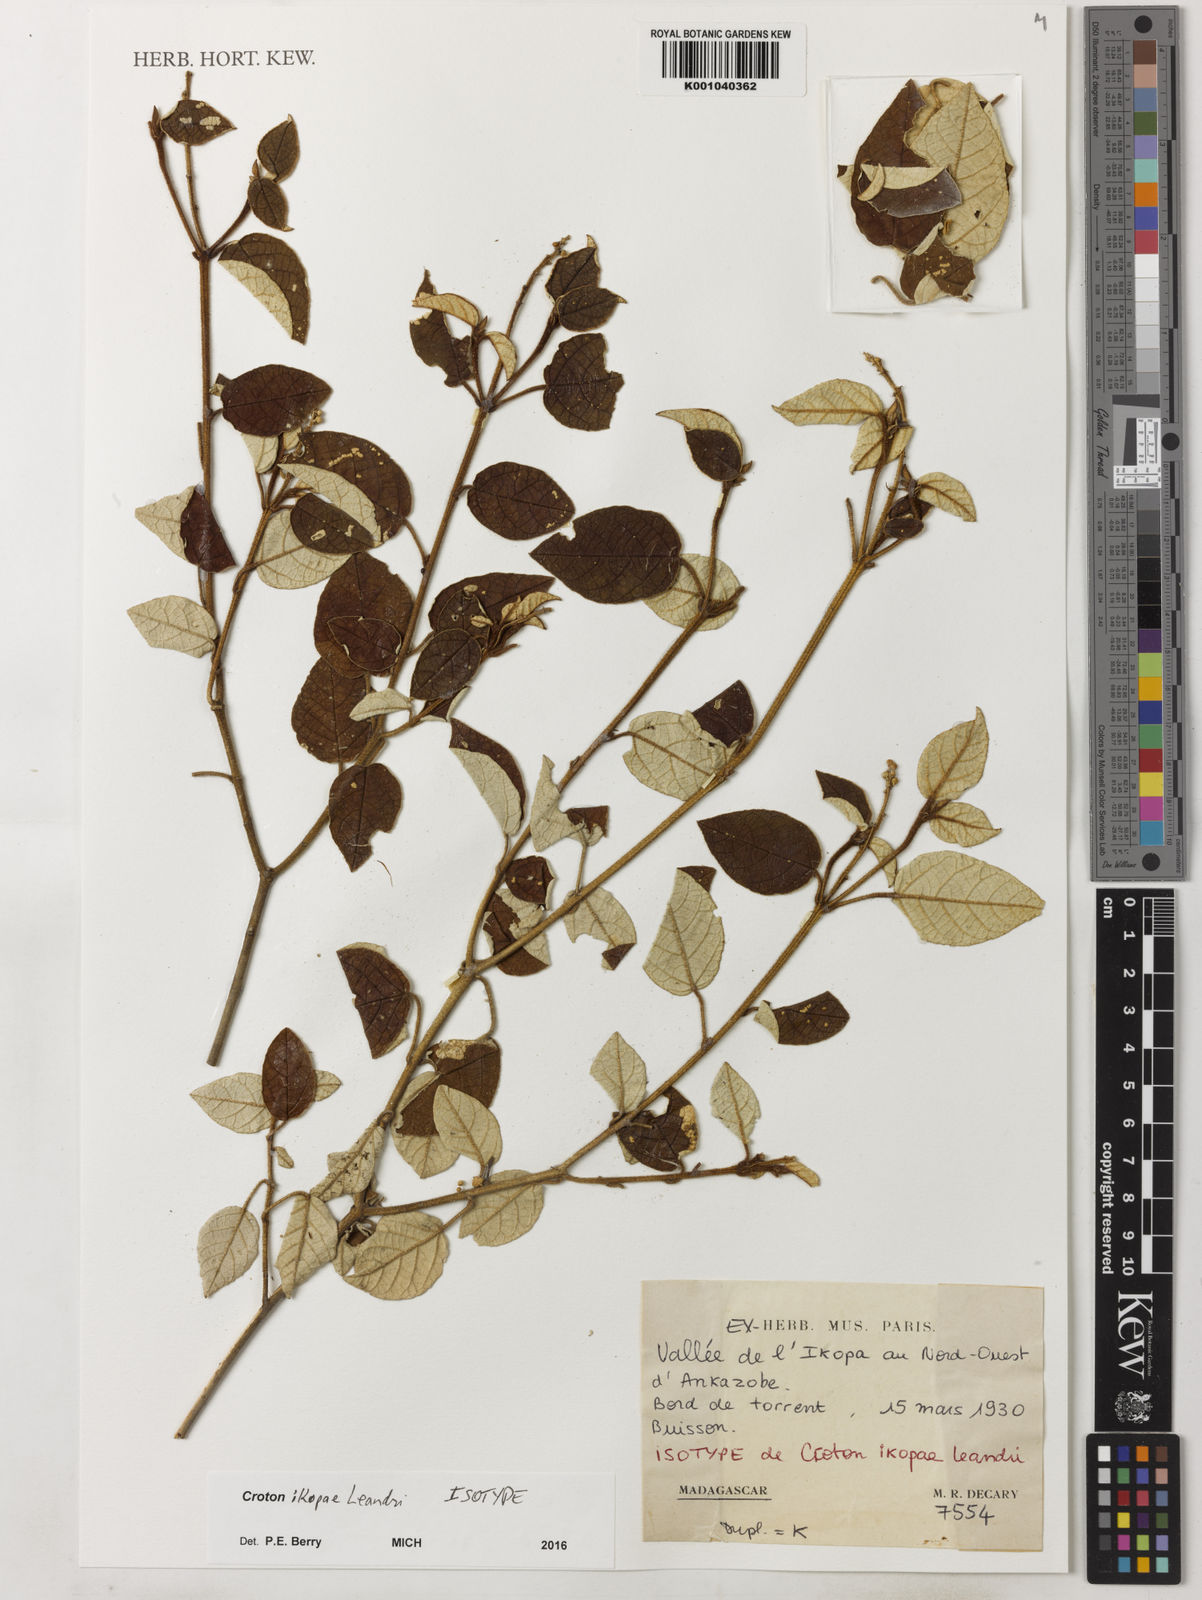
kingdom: Plantae
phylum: Tracheophyta
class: Magnoliopsida
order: Malpighiales
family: Euphorbiaceae
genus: Croton
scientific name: Croton stanneus
